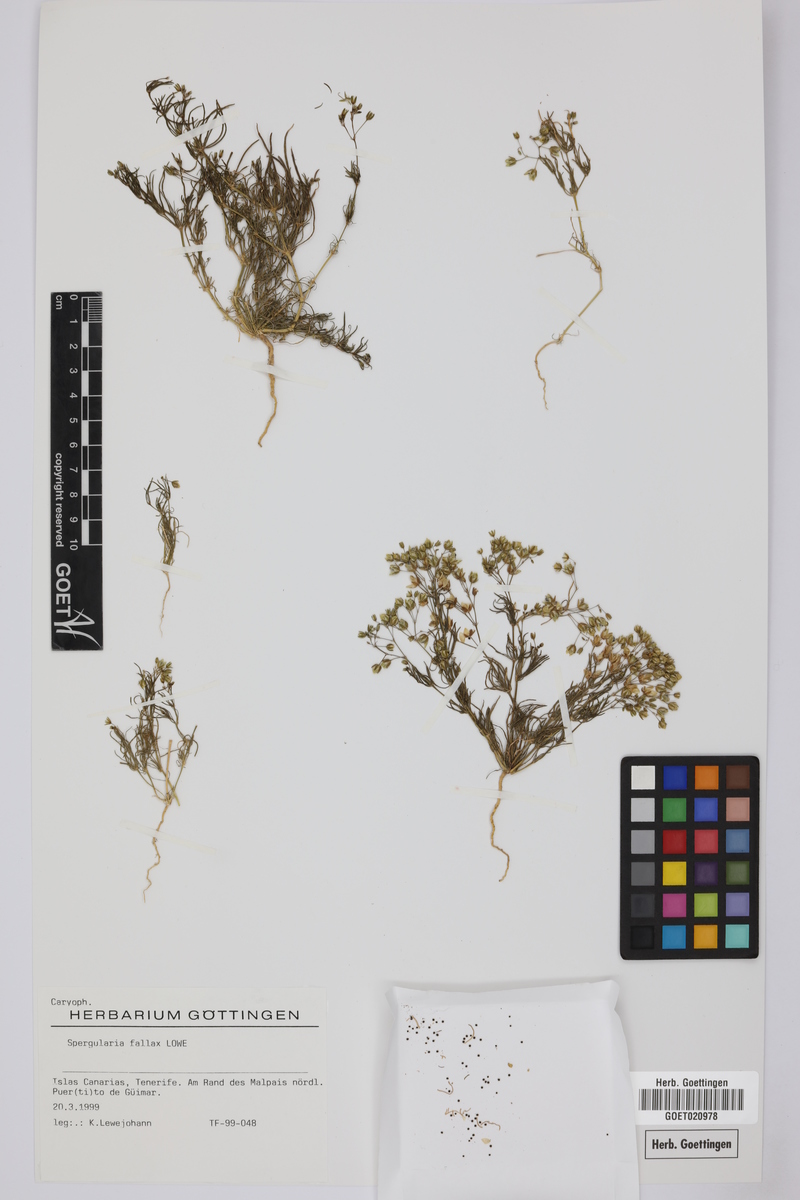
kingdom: Plantae
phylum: Tracheophyta
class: Magnoliopsida
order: Caryophyllales
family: Caryophyllaceae
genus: Spergularia
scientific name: Spergularia flaccida
